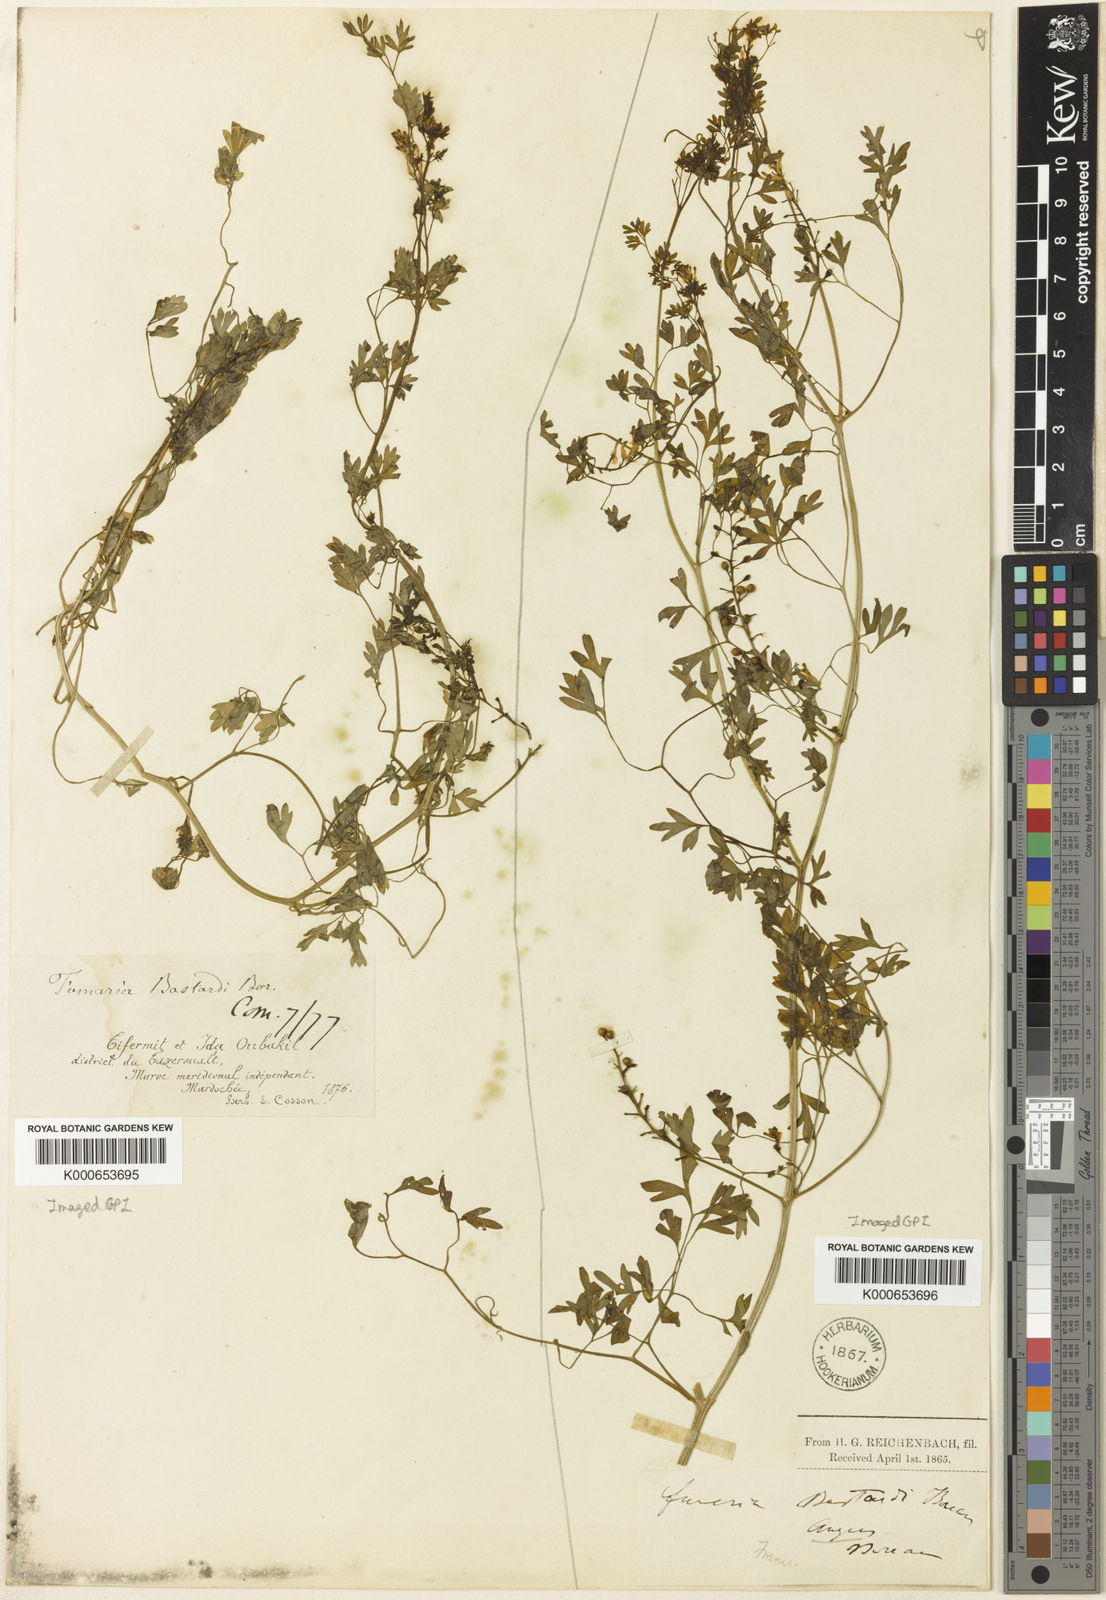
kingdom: Plantae
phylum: Tracheophyta
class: Magnoliopsida
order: Ranunculales
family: Papaveraceae
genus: Fumaria
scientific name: Fumaria bastardii
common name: Tall ramping-fumitory
